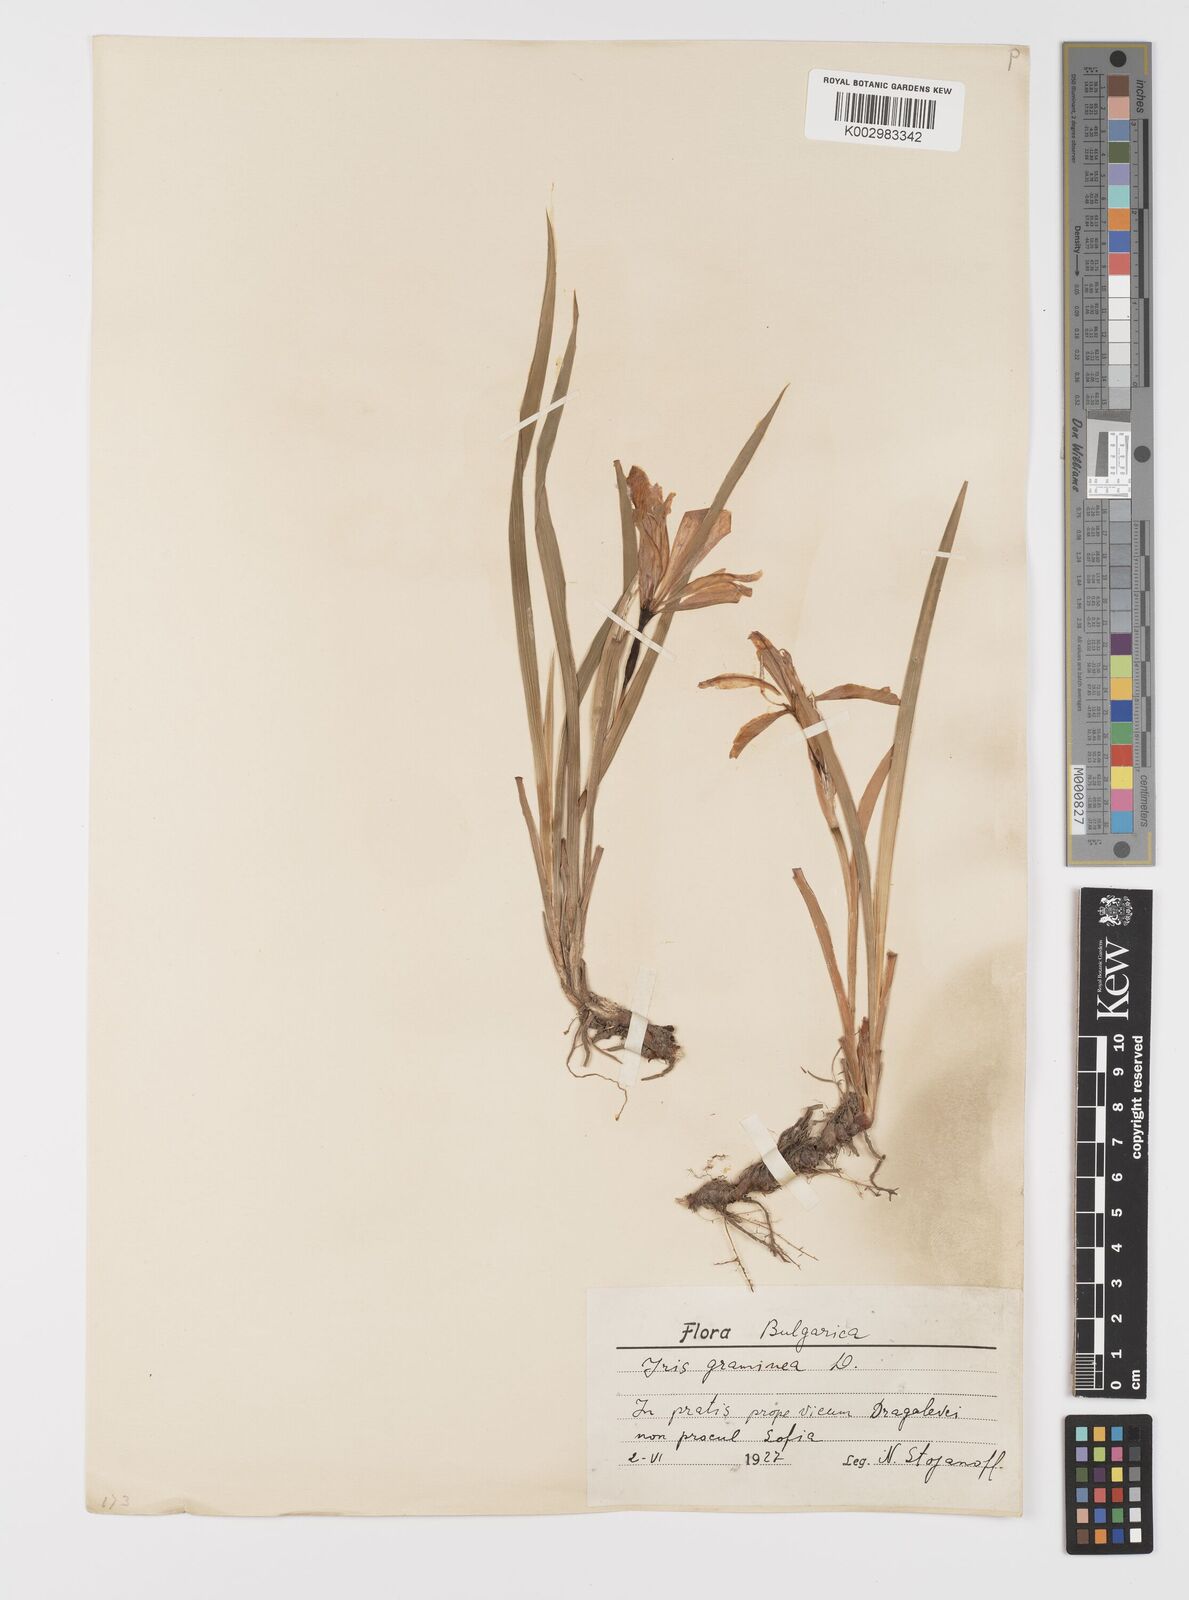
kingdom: Plantae
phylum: Tracheophyta
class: Liliopsida
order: Asparagales
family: Iridaceae
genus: Iris
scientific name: Iris graminea
